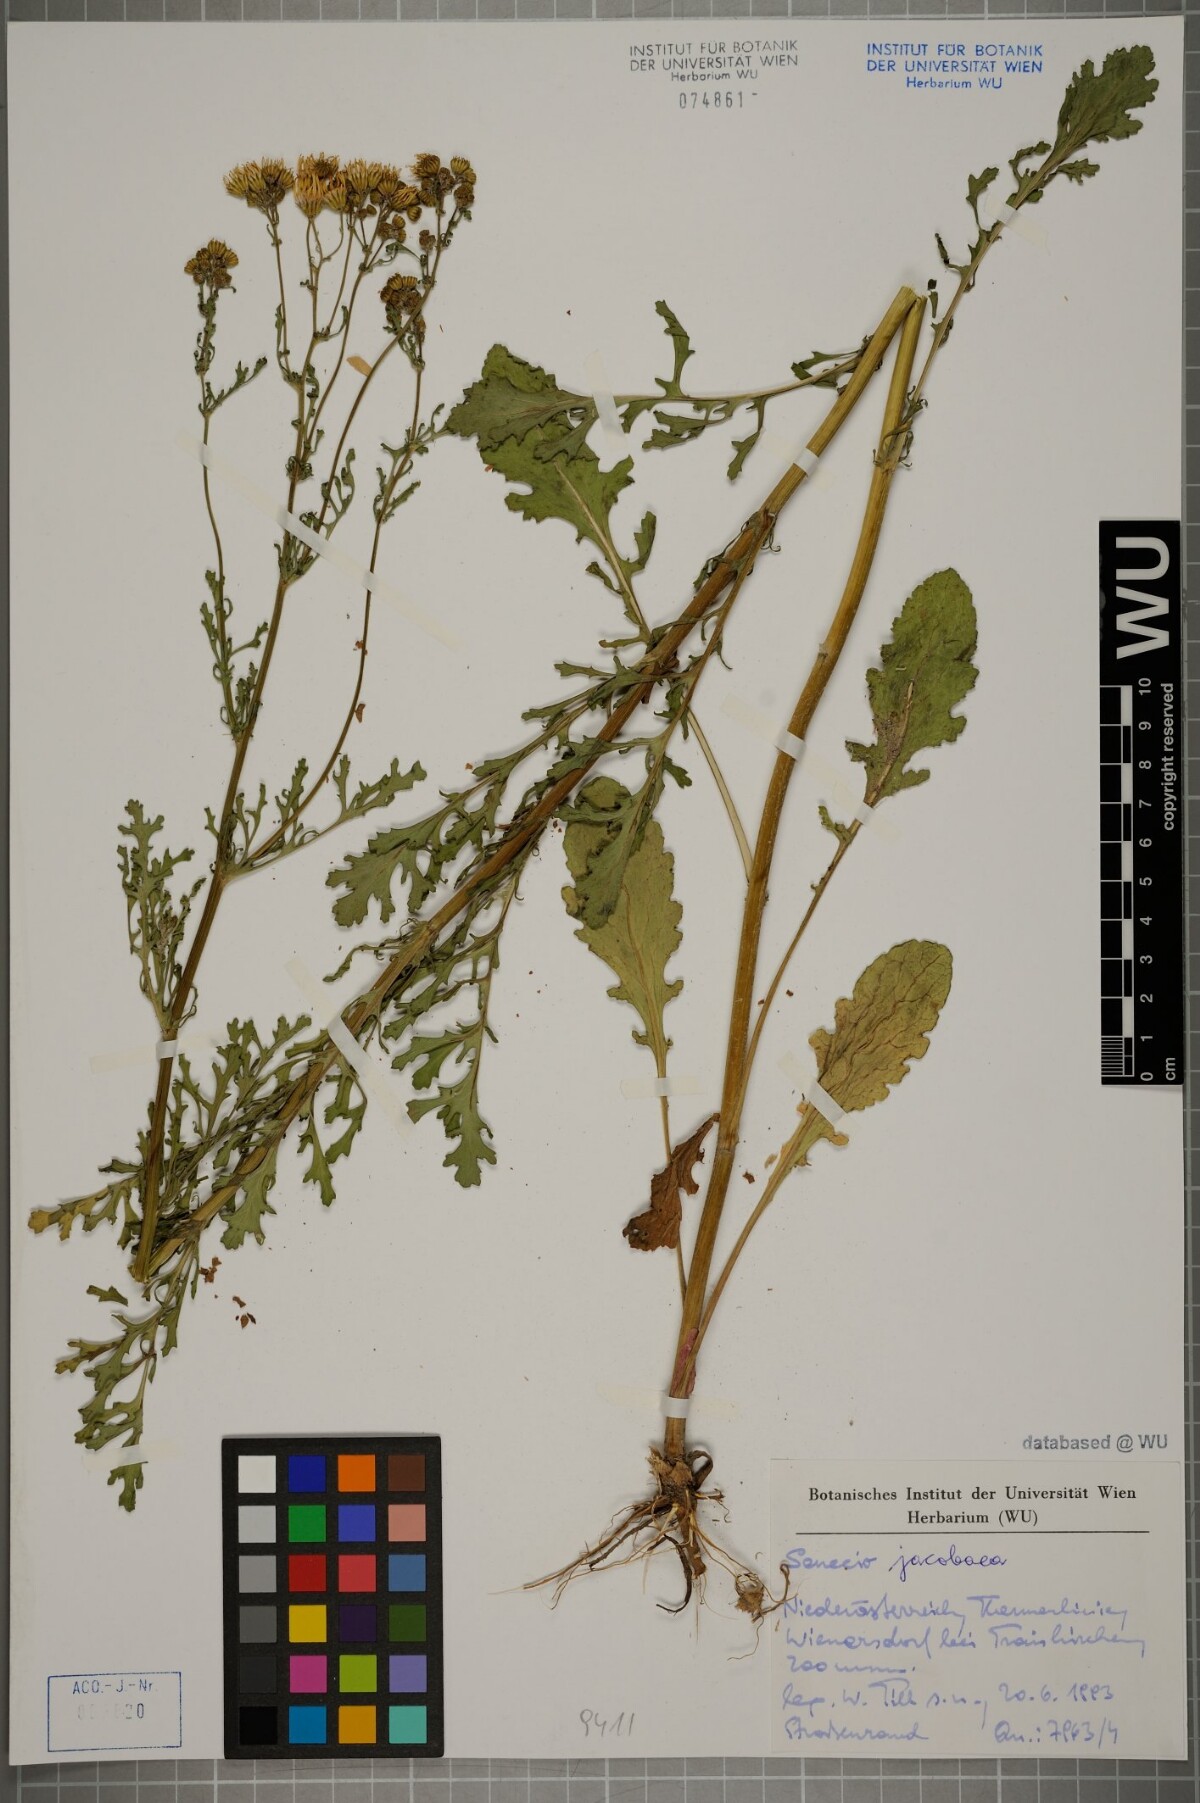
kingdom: Plantae
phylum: Tracheophyta
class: Magnoliopsida
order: Asterales
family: Asteraceae
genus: Jacobaea
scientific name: Jacobaea vulgaris
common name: Stinking willie
